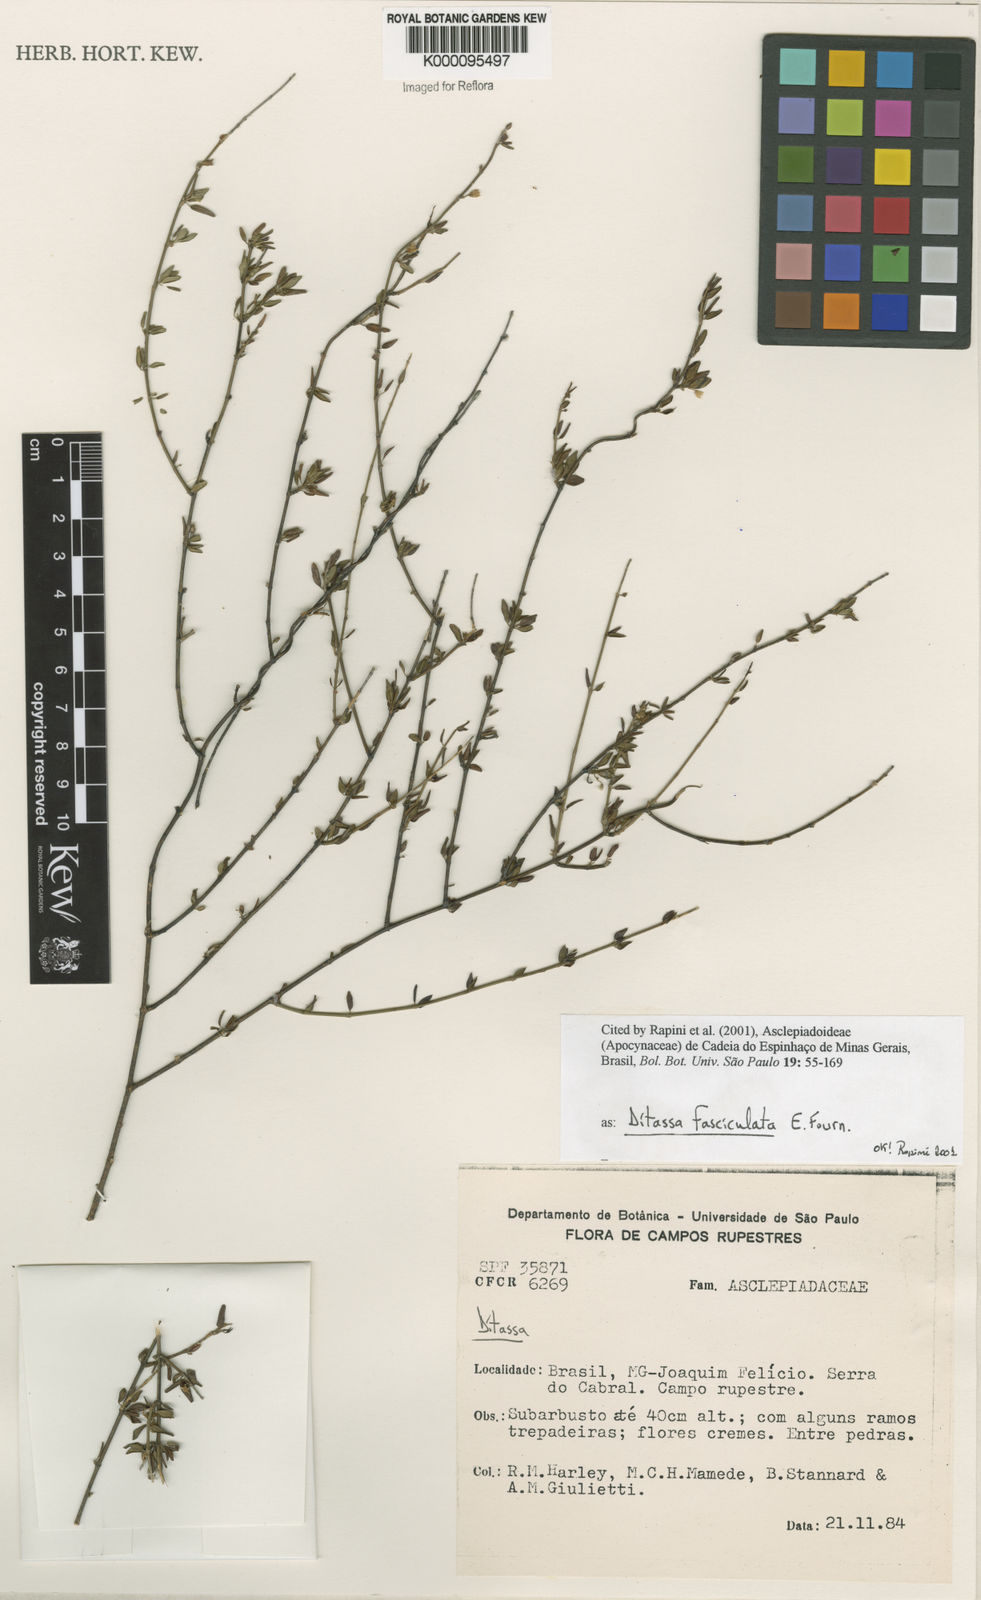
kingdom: Plantae
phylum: Tracheophyta
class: Magnoliopsida
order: Gentianales
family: Apocynaceae
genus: Ditassa
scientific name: Ditassa fasciculata
